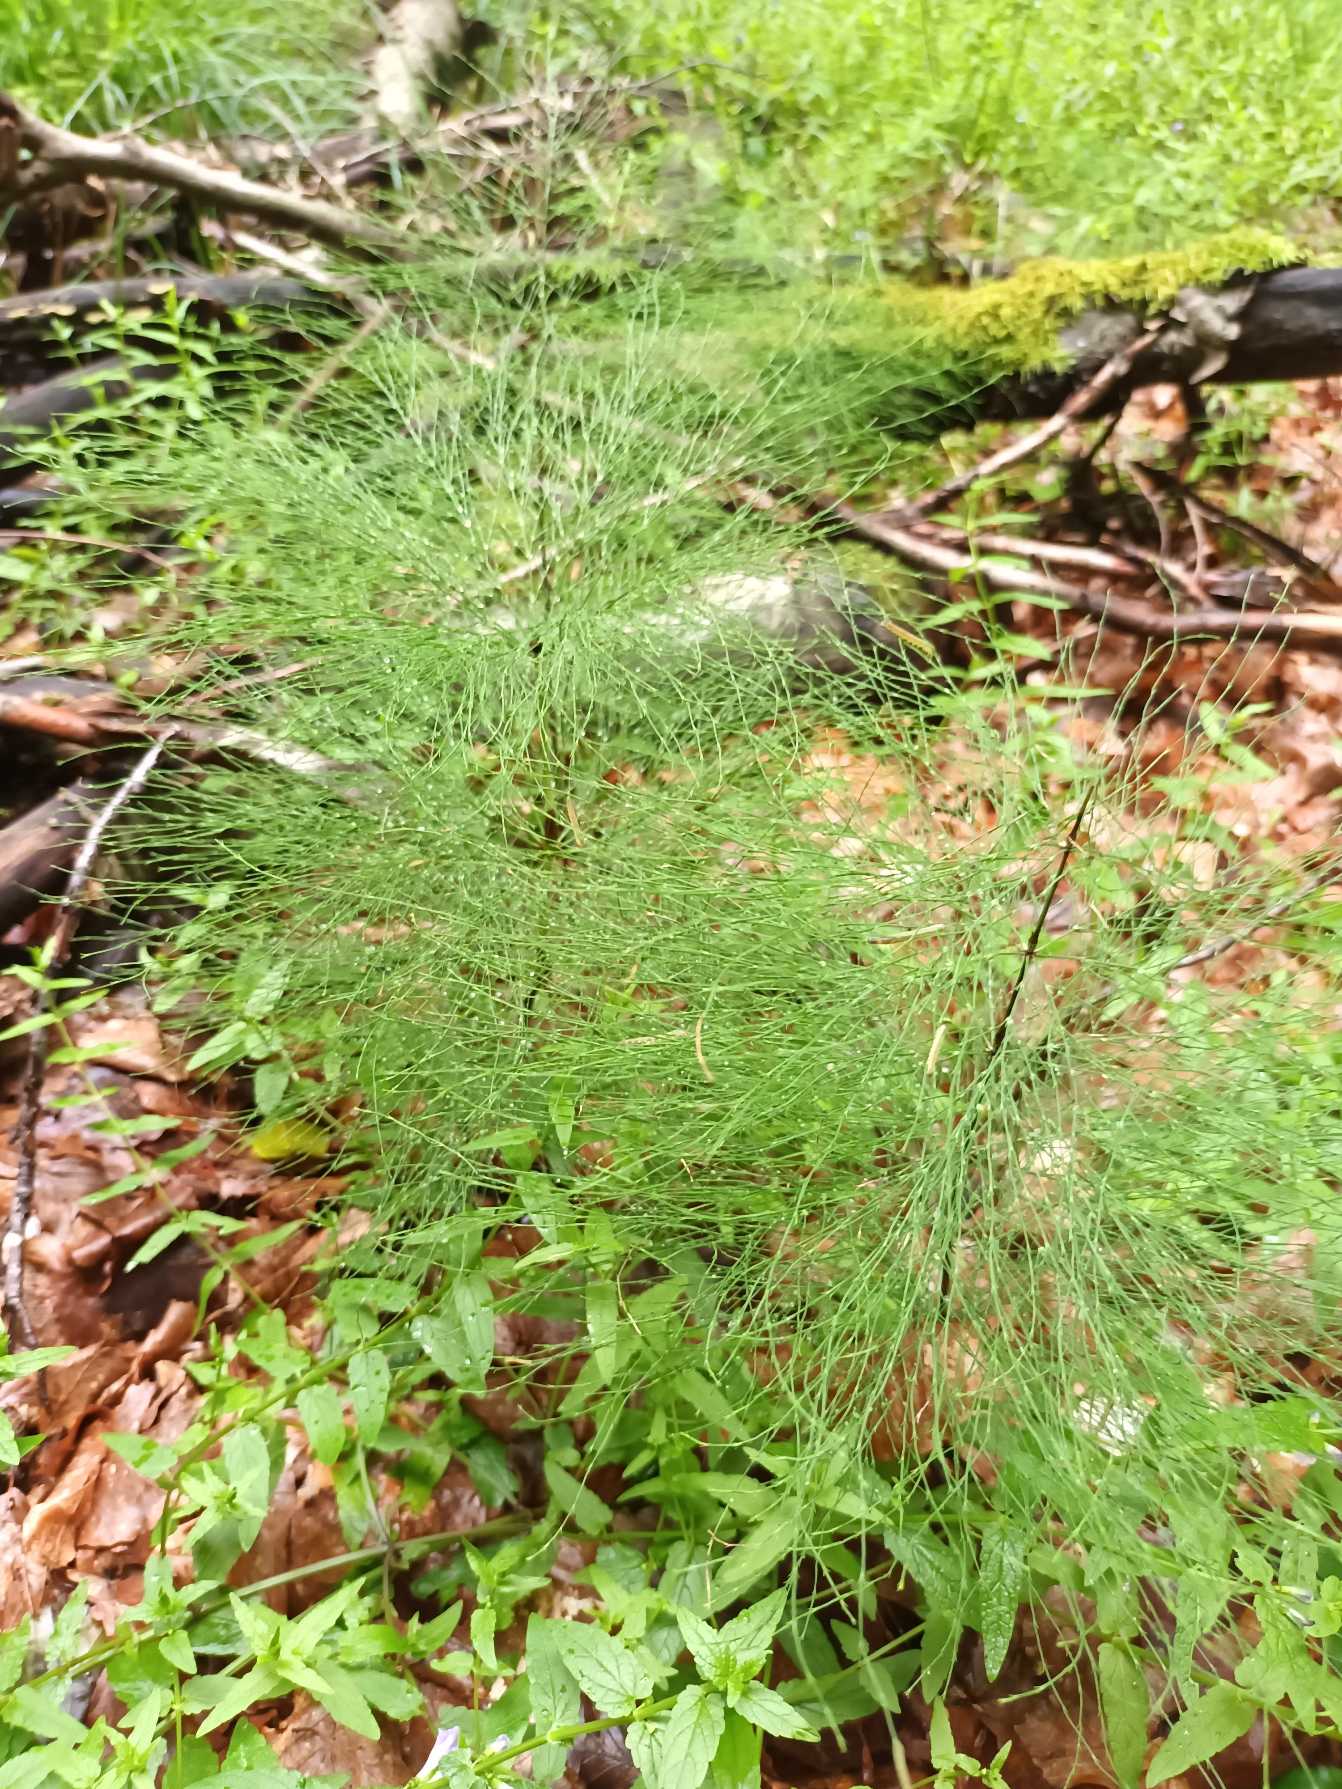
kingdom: Plantae
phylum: Tracheophyta
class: Polypodiopsida
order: Equisetales
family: Equisetaceae
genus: Equisetum
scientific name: Equisetum sylvaticum
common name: Skov-padderok
